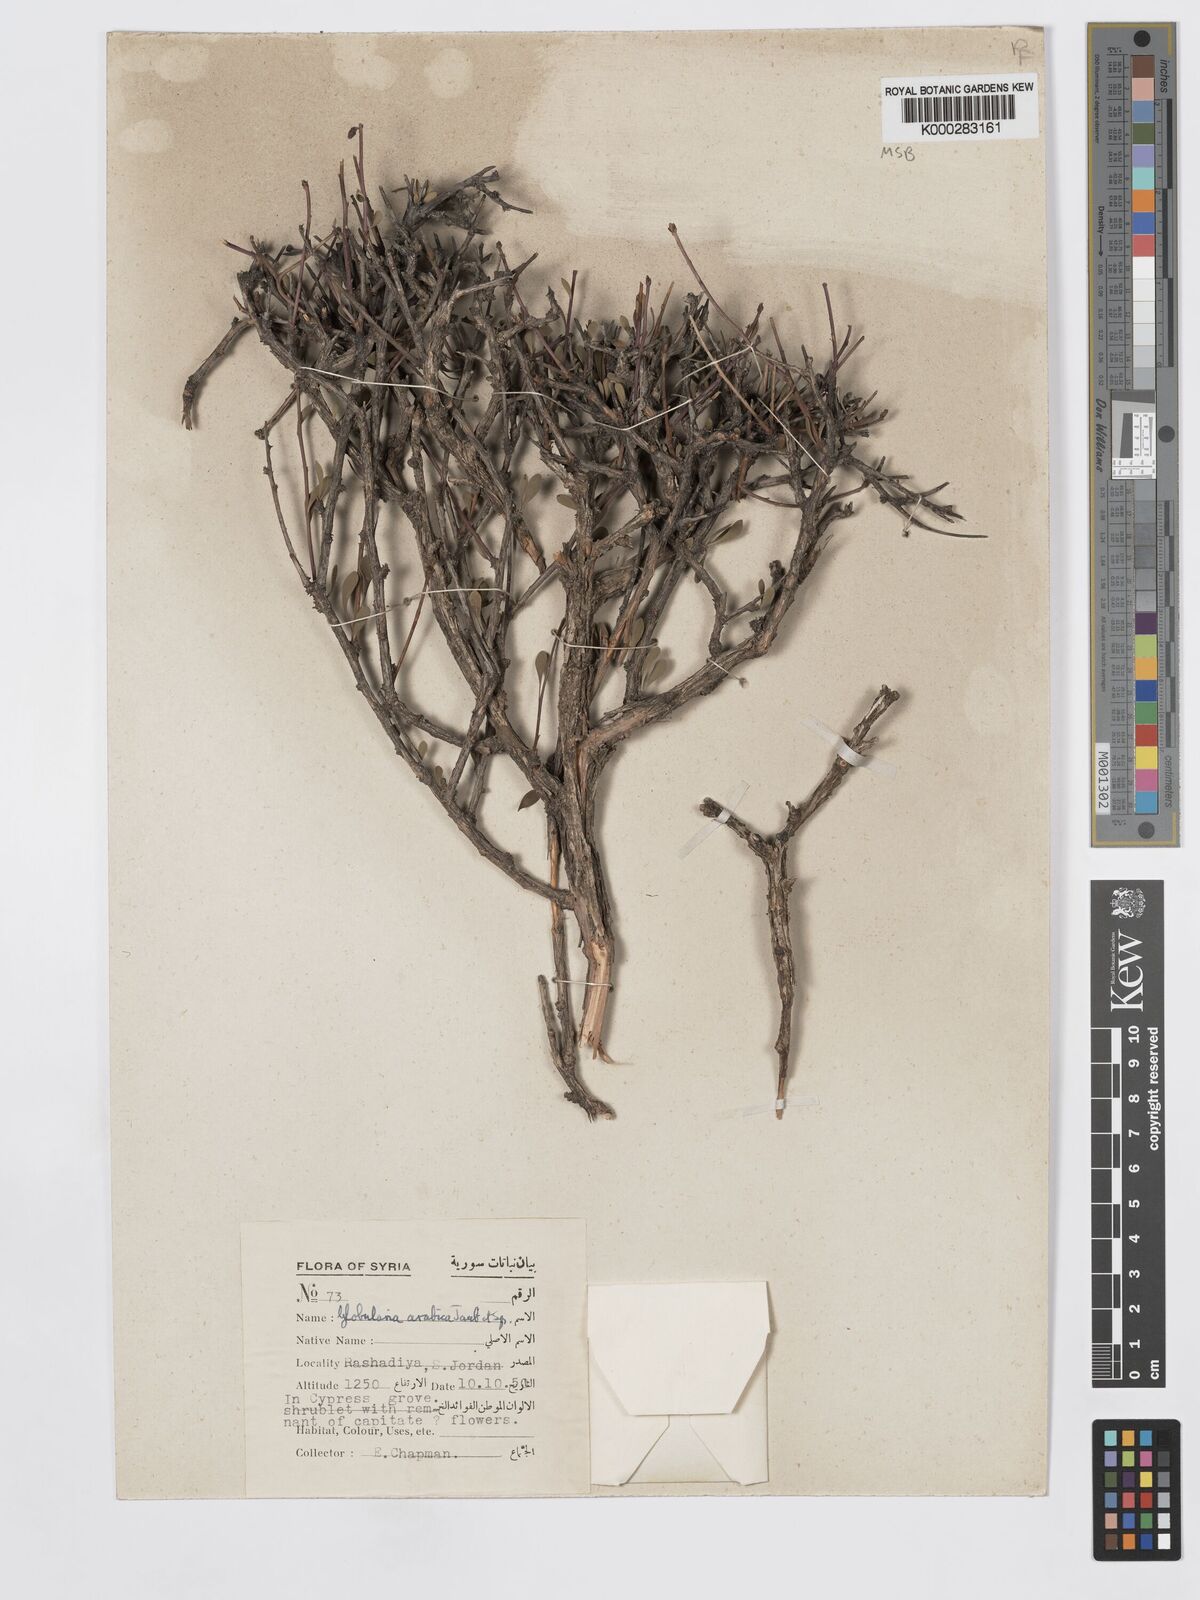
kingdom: Plantae
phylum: Tracheophyta
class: Magnoliopsida
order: Lamiales
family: Plantaginaceae
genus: Globularia
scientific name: Globularia arabica
